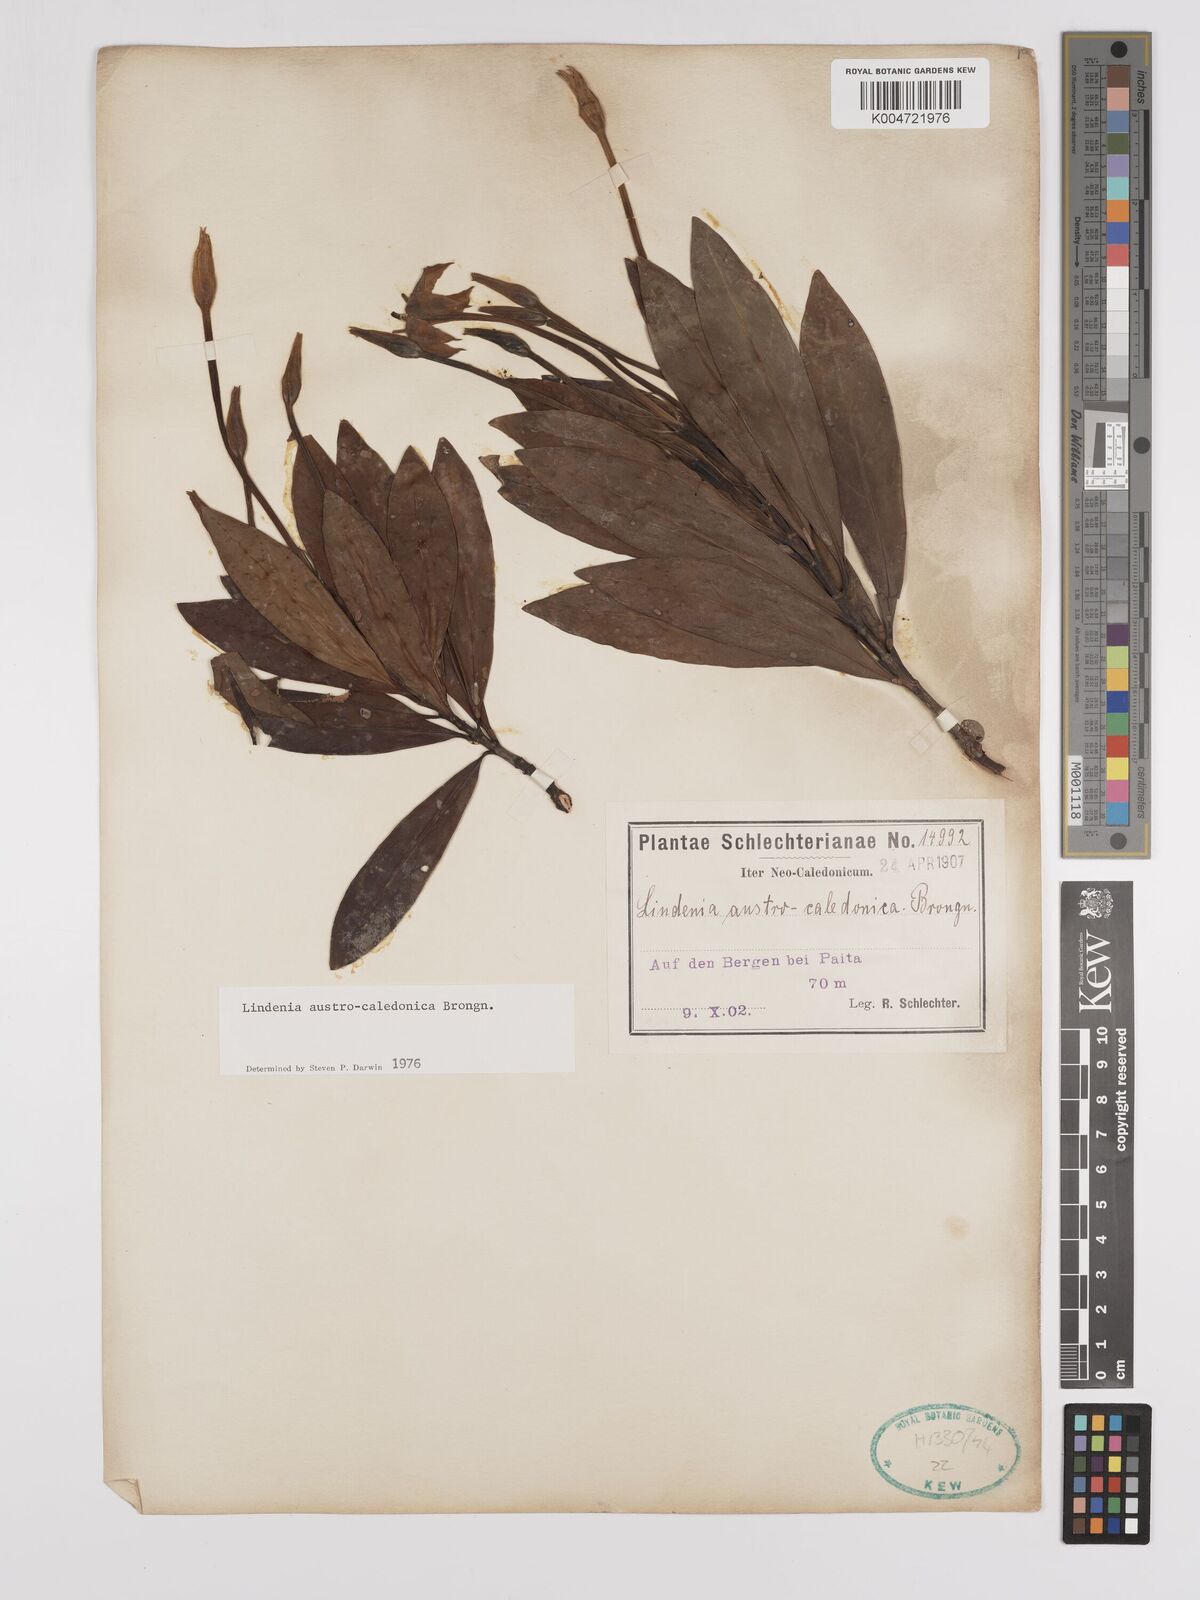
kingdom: Plantae
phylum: Tracheophyta
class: Magnoliopsida
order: Gentianales
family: Rubiaceae
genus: Augusta
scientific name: Augusta austrocaledonica
